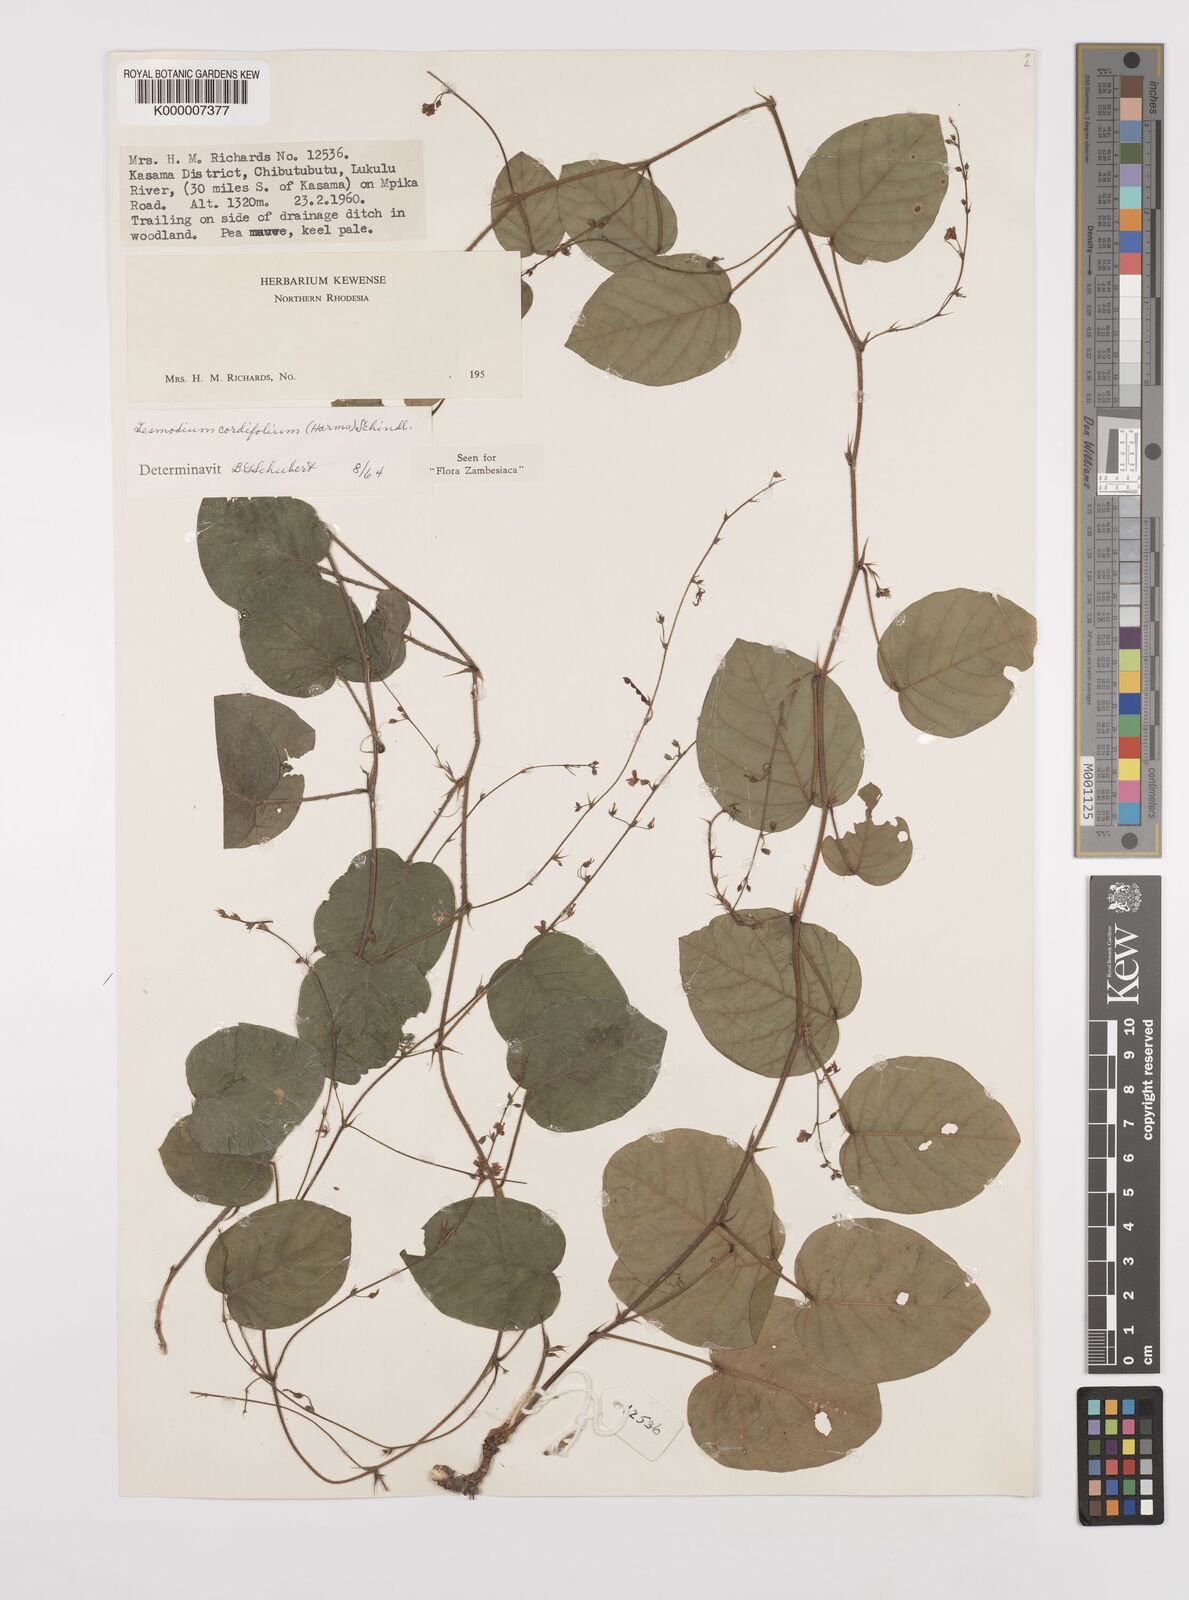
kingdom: Plantae
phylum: Tracheophyta
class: Magnoliopsida
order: Fabales
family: Fabaceae
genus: Grona
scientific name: Grona cordifolia
